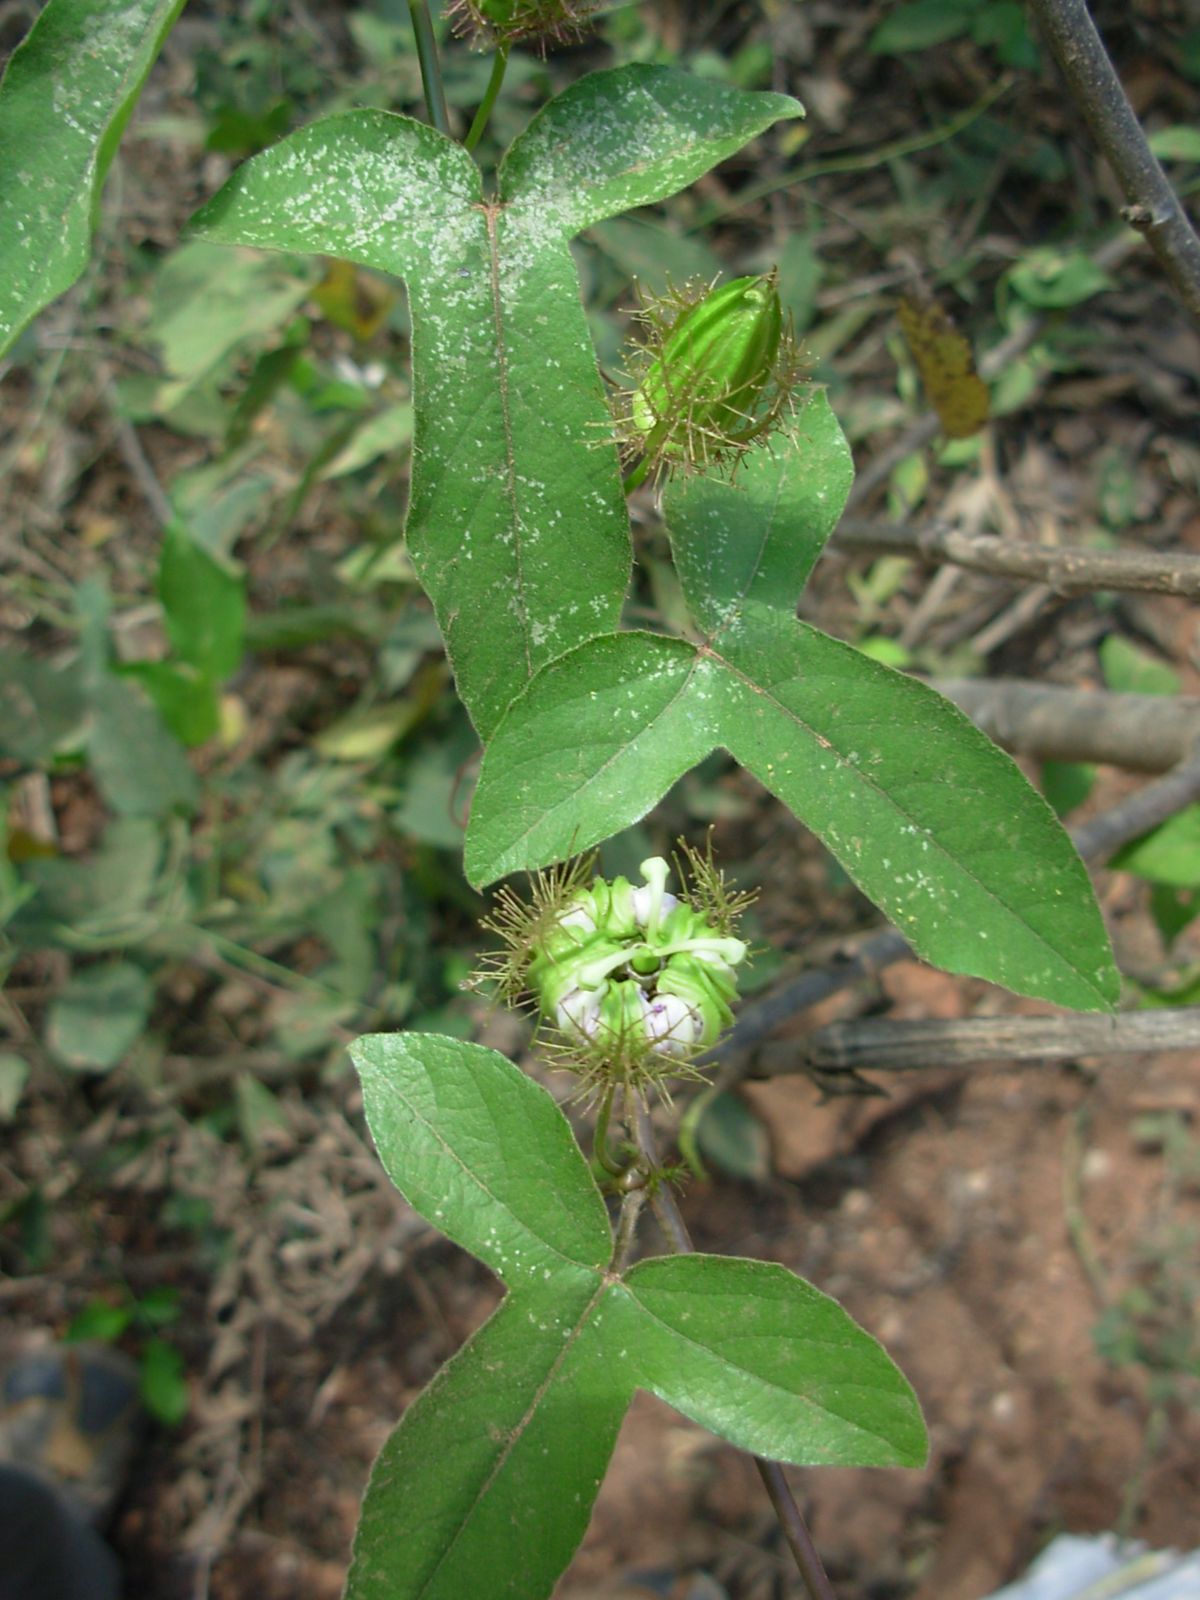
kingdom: Plantae
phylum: Tracheophyta
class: Magnoliopsida
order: Malpighiales
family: Passifloraceae
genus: Passiflora
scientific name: Passiflora ciliata
